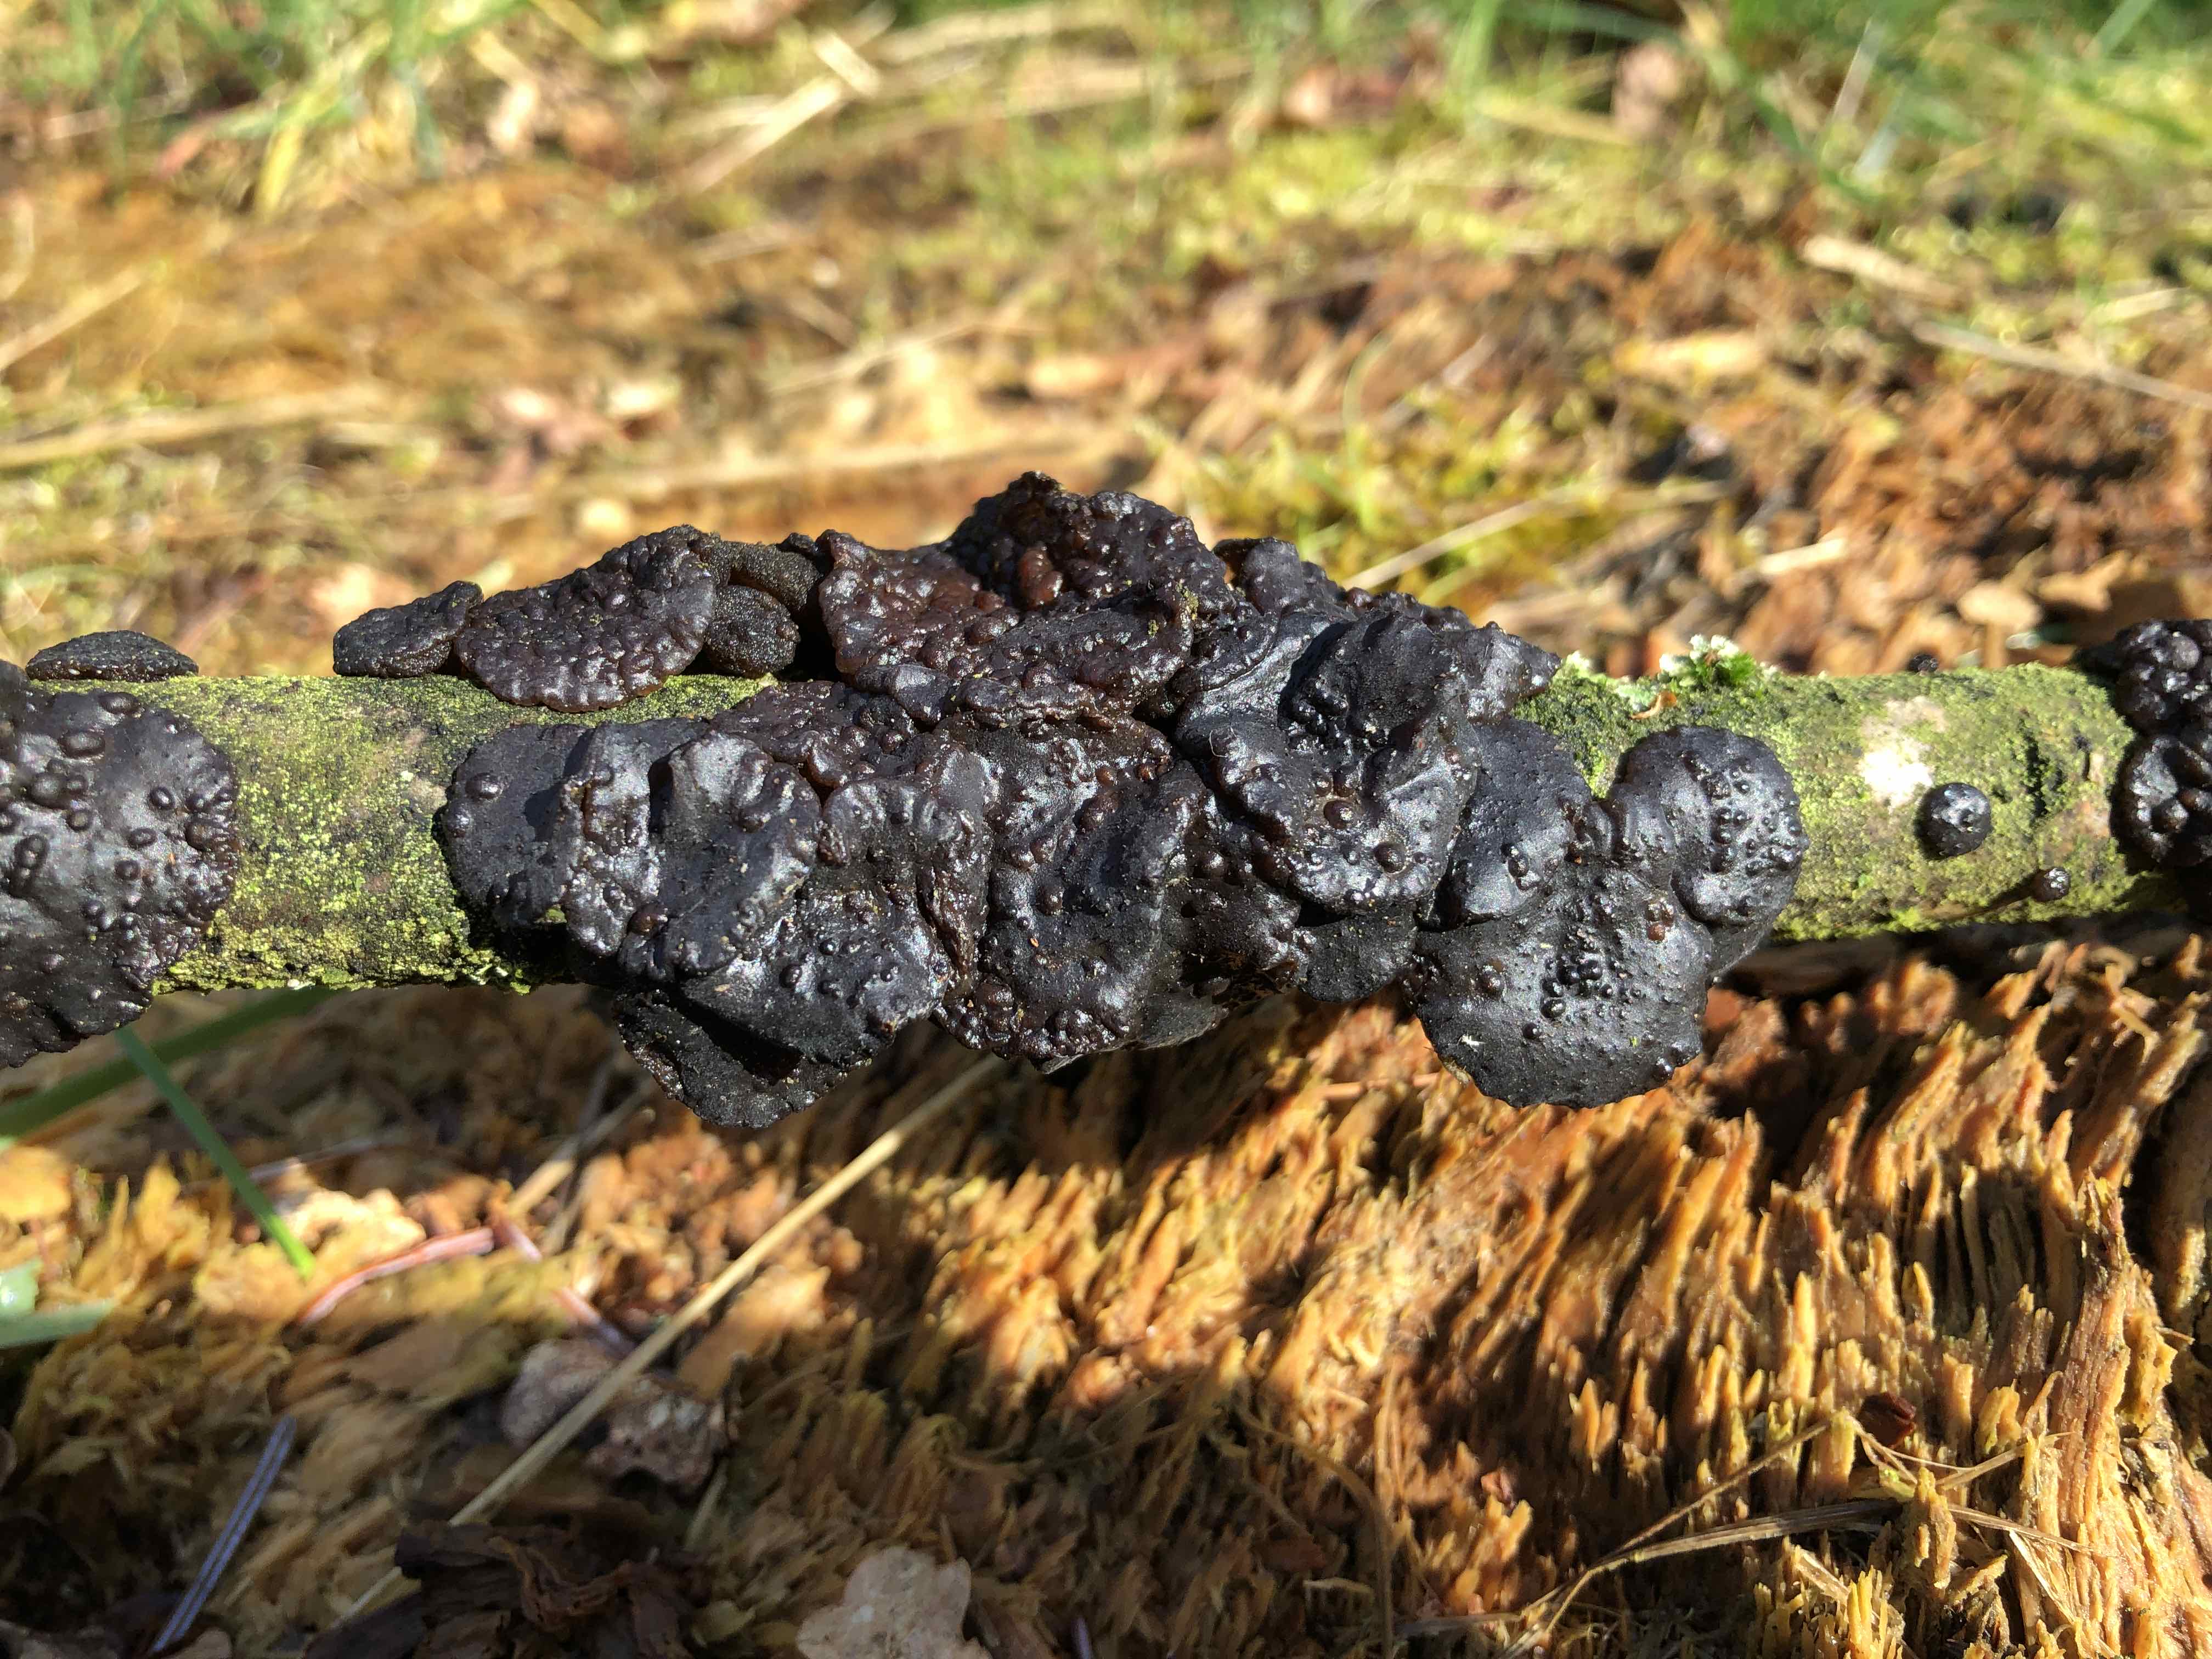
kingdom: Fungi
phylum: Basidiomycota
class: Agaricomycetes
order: Auriculariales
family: Auriculariaceae
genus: Exidia
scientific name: Exidia glandulosa
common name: ege-bævretop
